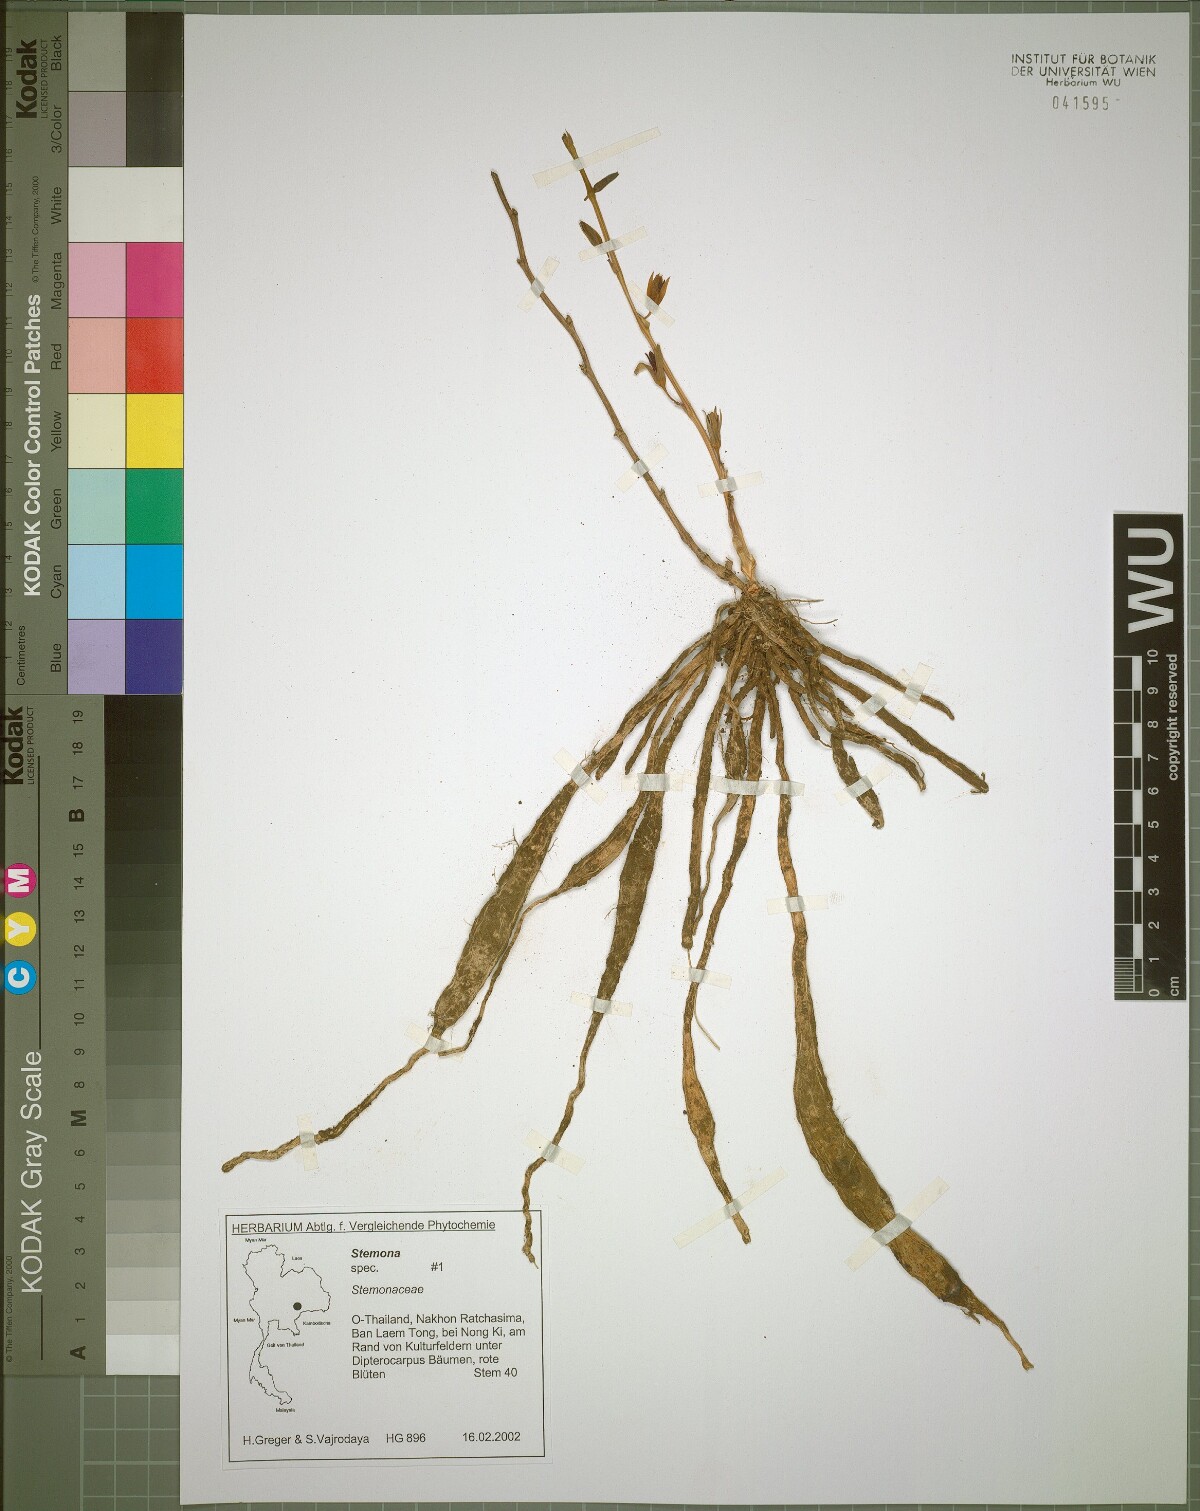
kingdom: Plantae
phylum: Tracheophyta
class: Liliopsida
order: Pandanales
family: Stemonaceae
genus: Stemona
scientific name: Stemona involuta
